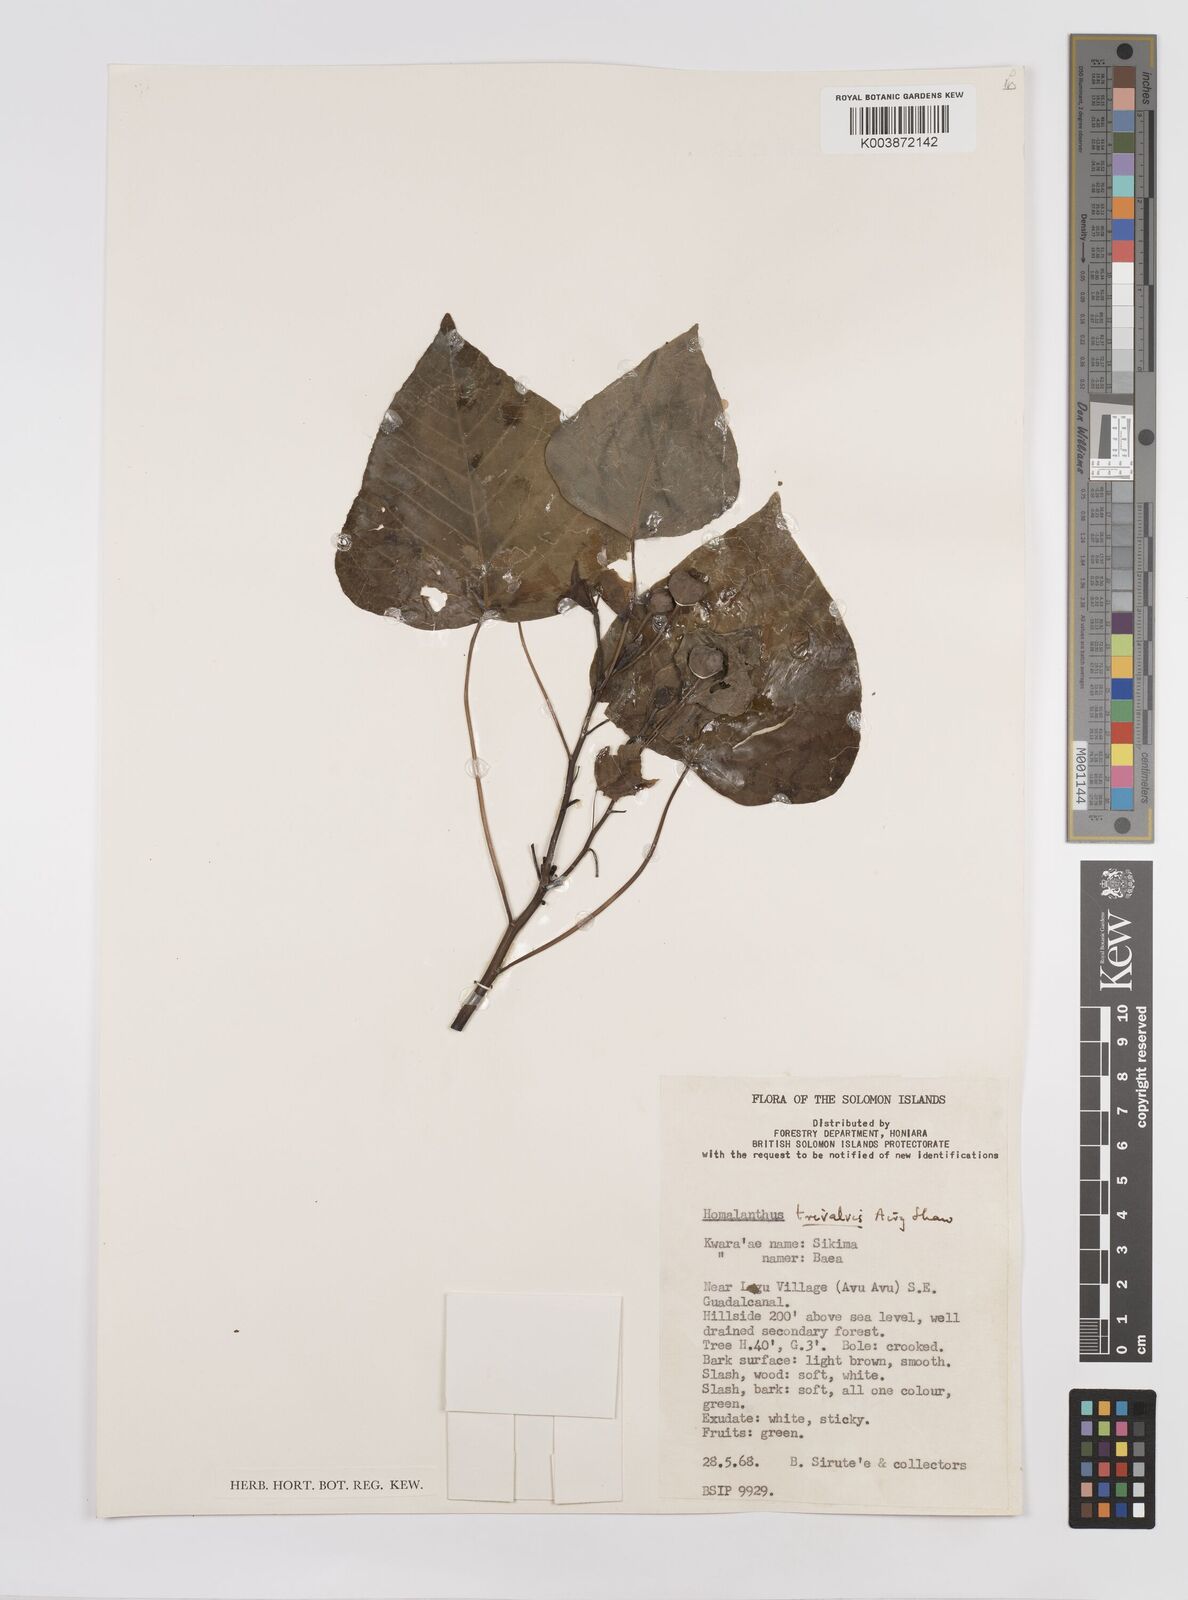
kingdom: Plantae
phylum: Tracheophyta
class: Magnoliopsida
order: Malpighiales
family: Euphorbiaceae
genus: Homalanthus
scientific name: Homalanthus trivalvis
